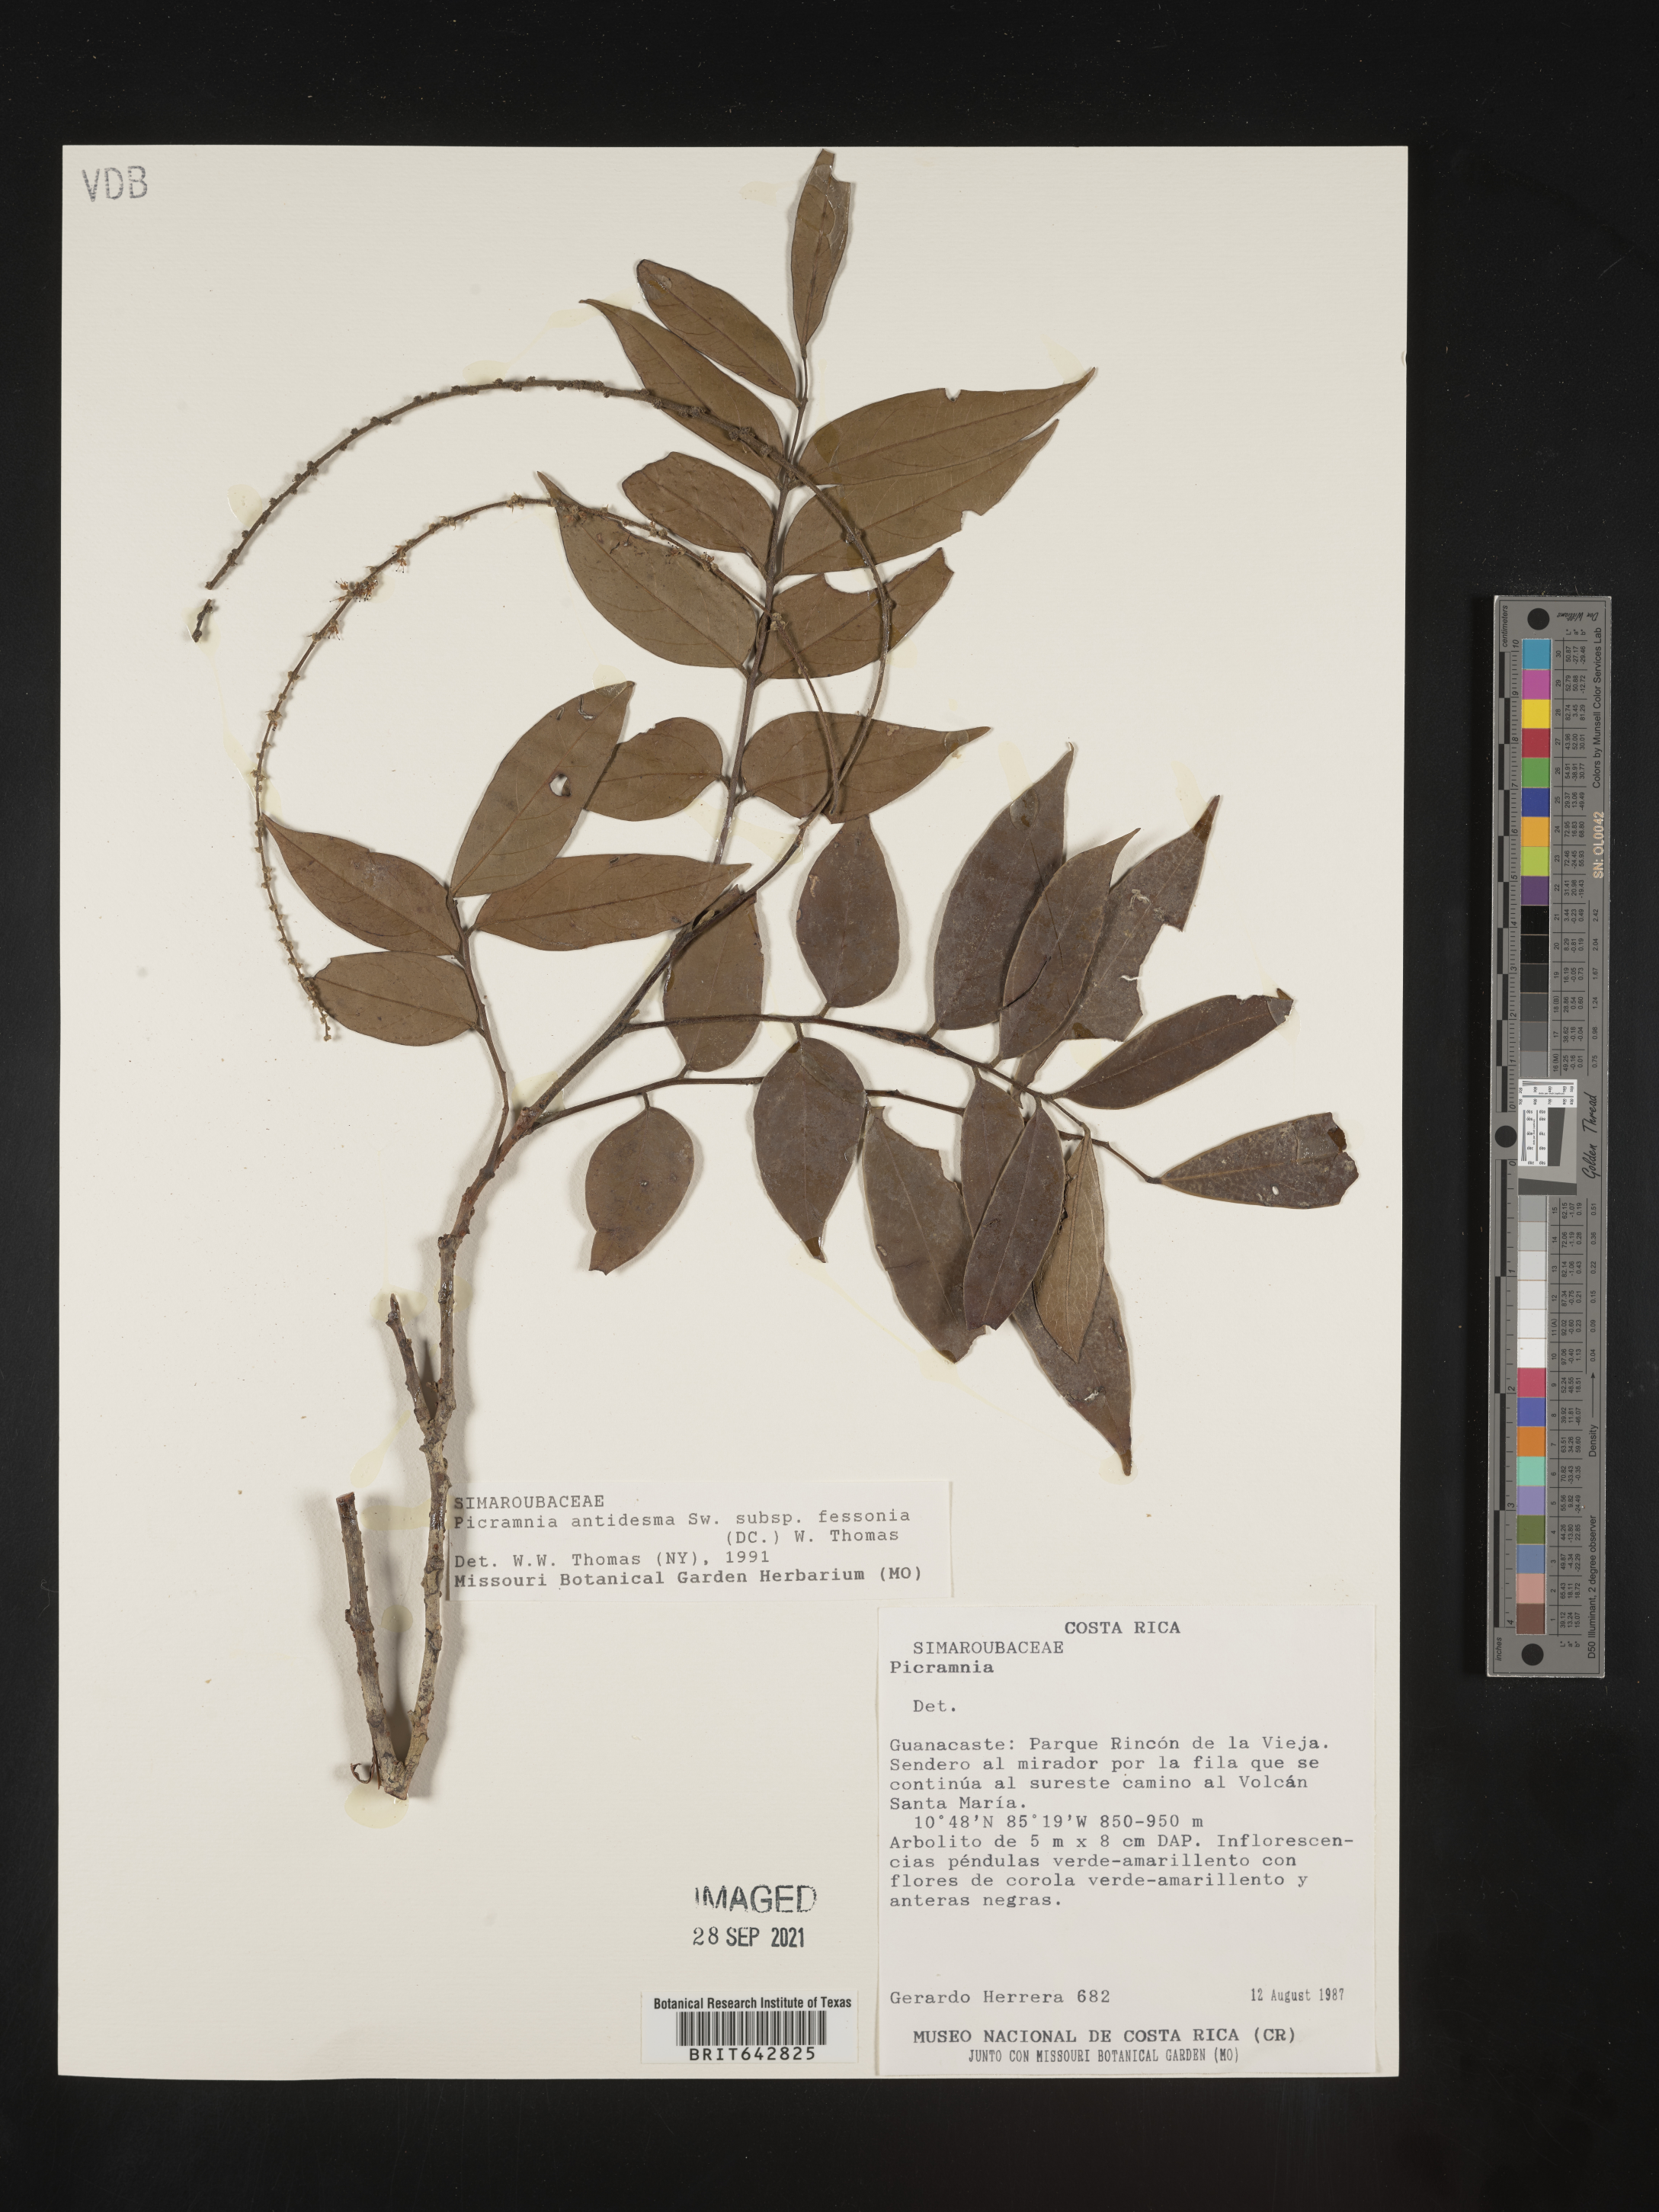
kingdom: Plantae
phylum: Tracheophyta
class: Magnoliopsida
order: Picramniales
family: Picramniaceae
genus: Picramnia
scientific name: Picramnia
